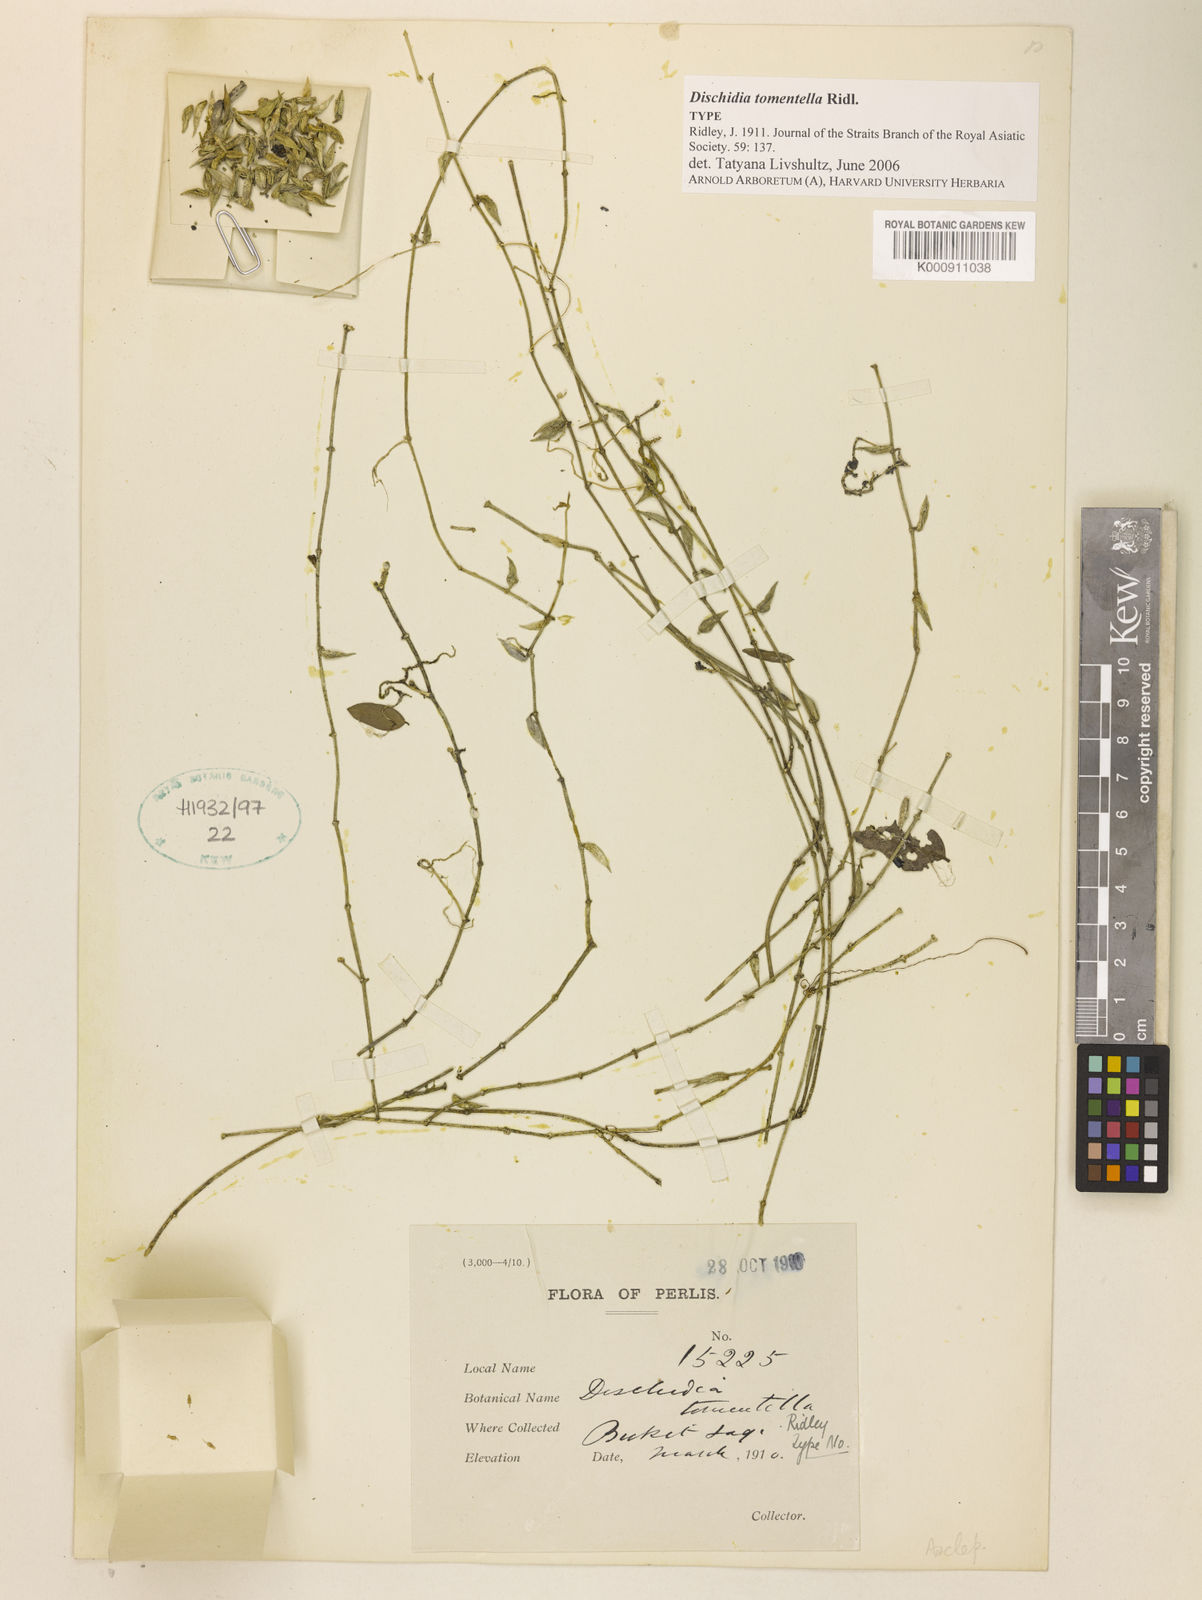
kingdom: Plantae
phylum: Tracheophyta
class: Magnoliopsida
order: Gentianales
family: Apocynaceae
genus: Dischidia
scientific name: Dischidia tomentella
